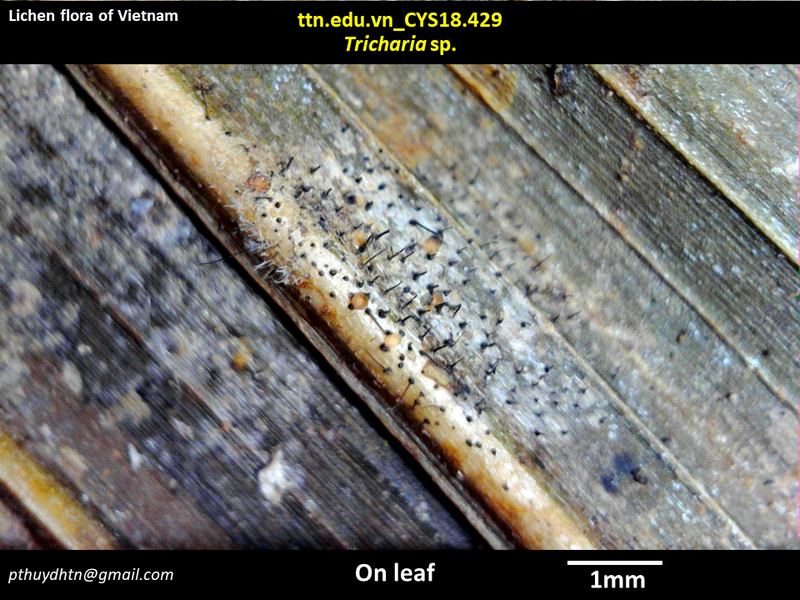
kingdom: Fungi
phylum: Ascomycota
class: Lecanoromycetes
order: Ostropales
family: Gomphillaceae
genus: Tricharia
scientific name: Tricharia
